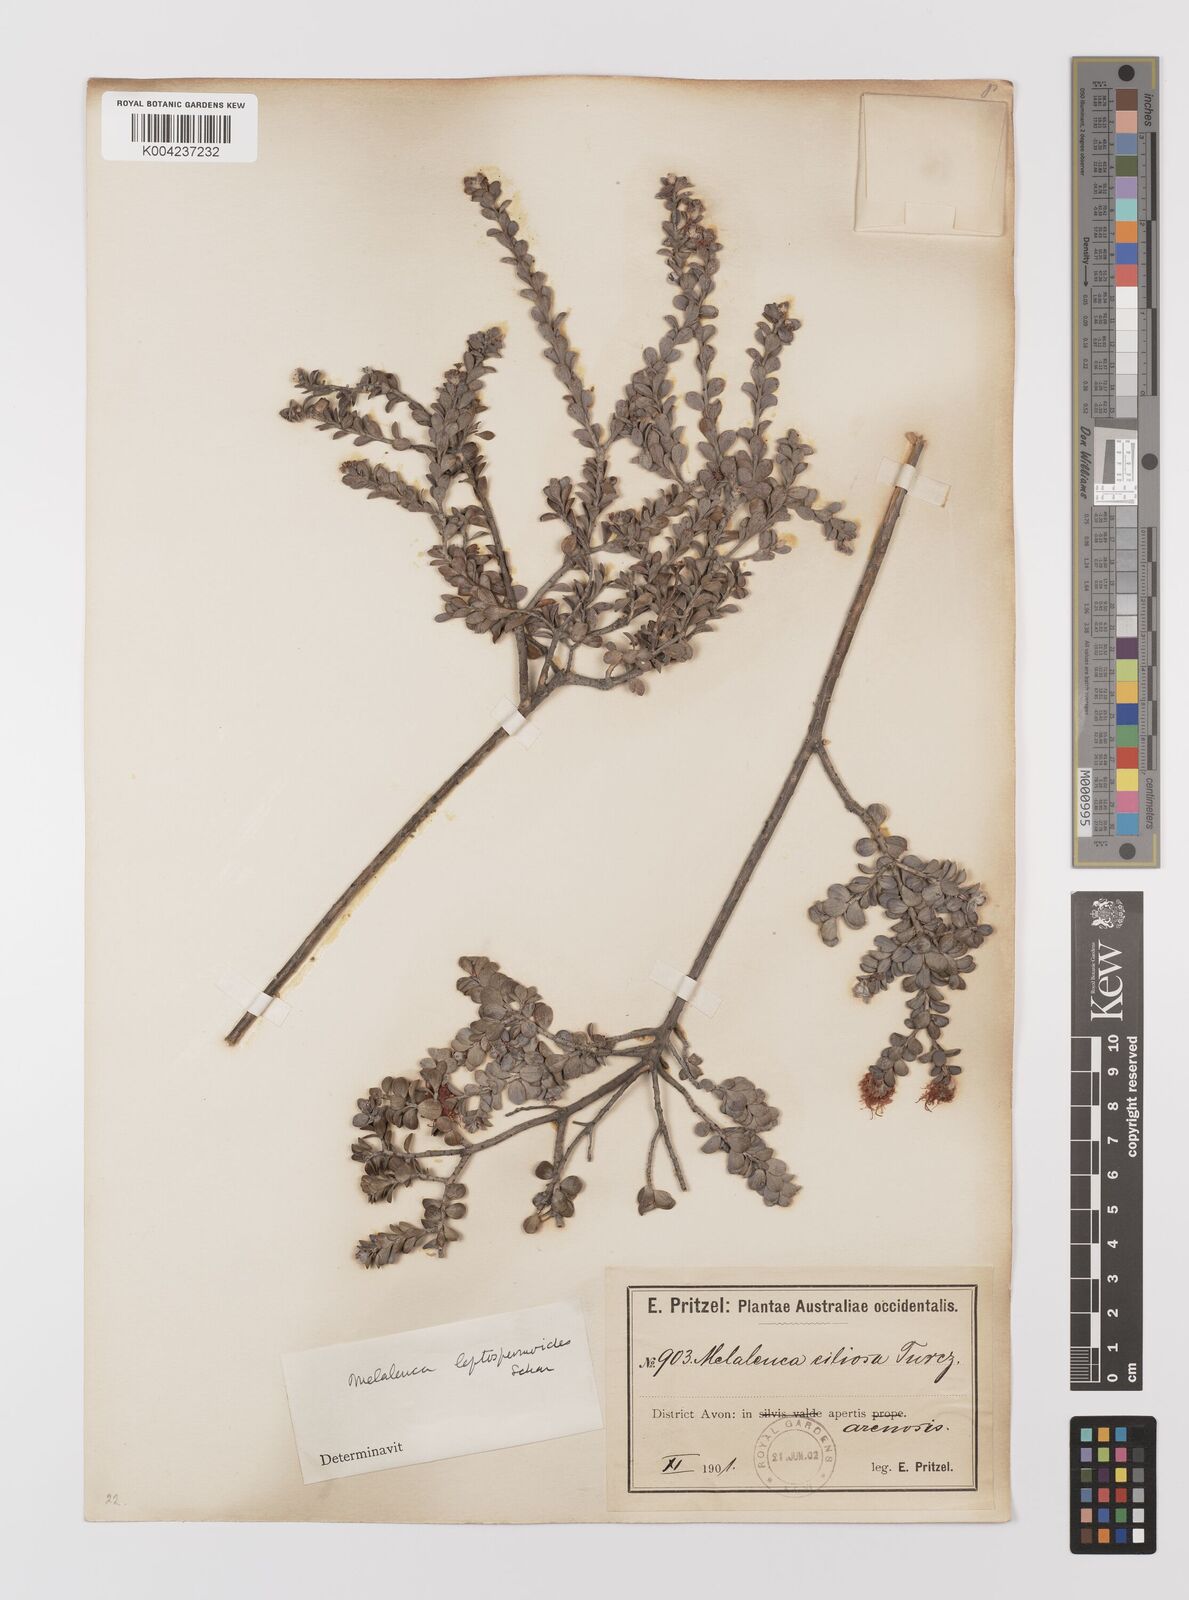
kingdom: Plantae
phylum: Tracheophyta
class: Magnoliopsida
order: Myrtales
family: Myrtaceae
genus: Melaleuca
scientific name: Melaleuca leptospermoides
